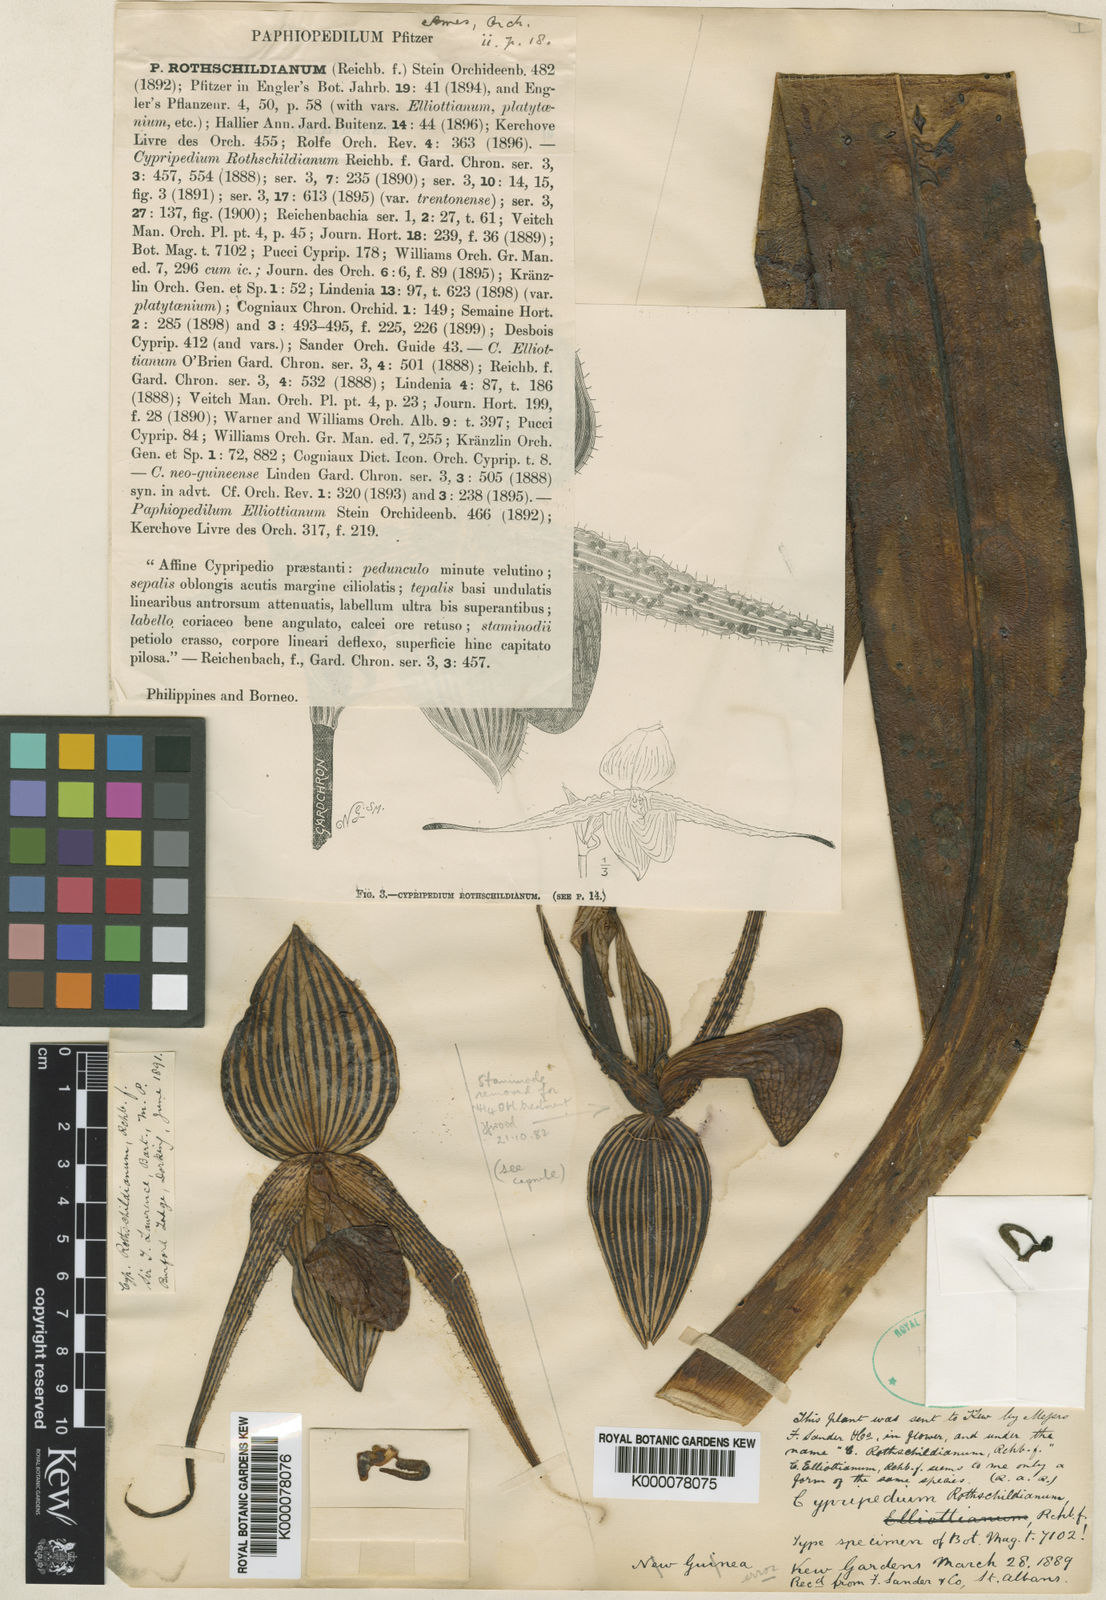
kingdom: Plantae
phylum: Tracheophyta
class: Liliopsida
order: Asparagales
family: Orchidaceae
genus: Paphiopedilum
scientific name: Paphiopedilum rothschildianum
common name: Rothschild's paphiopedilum
